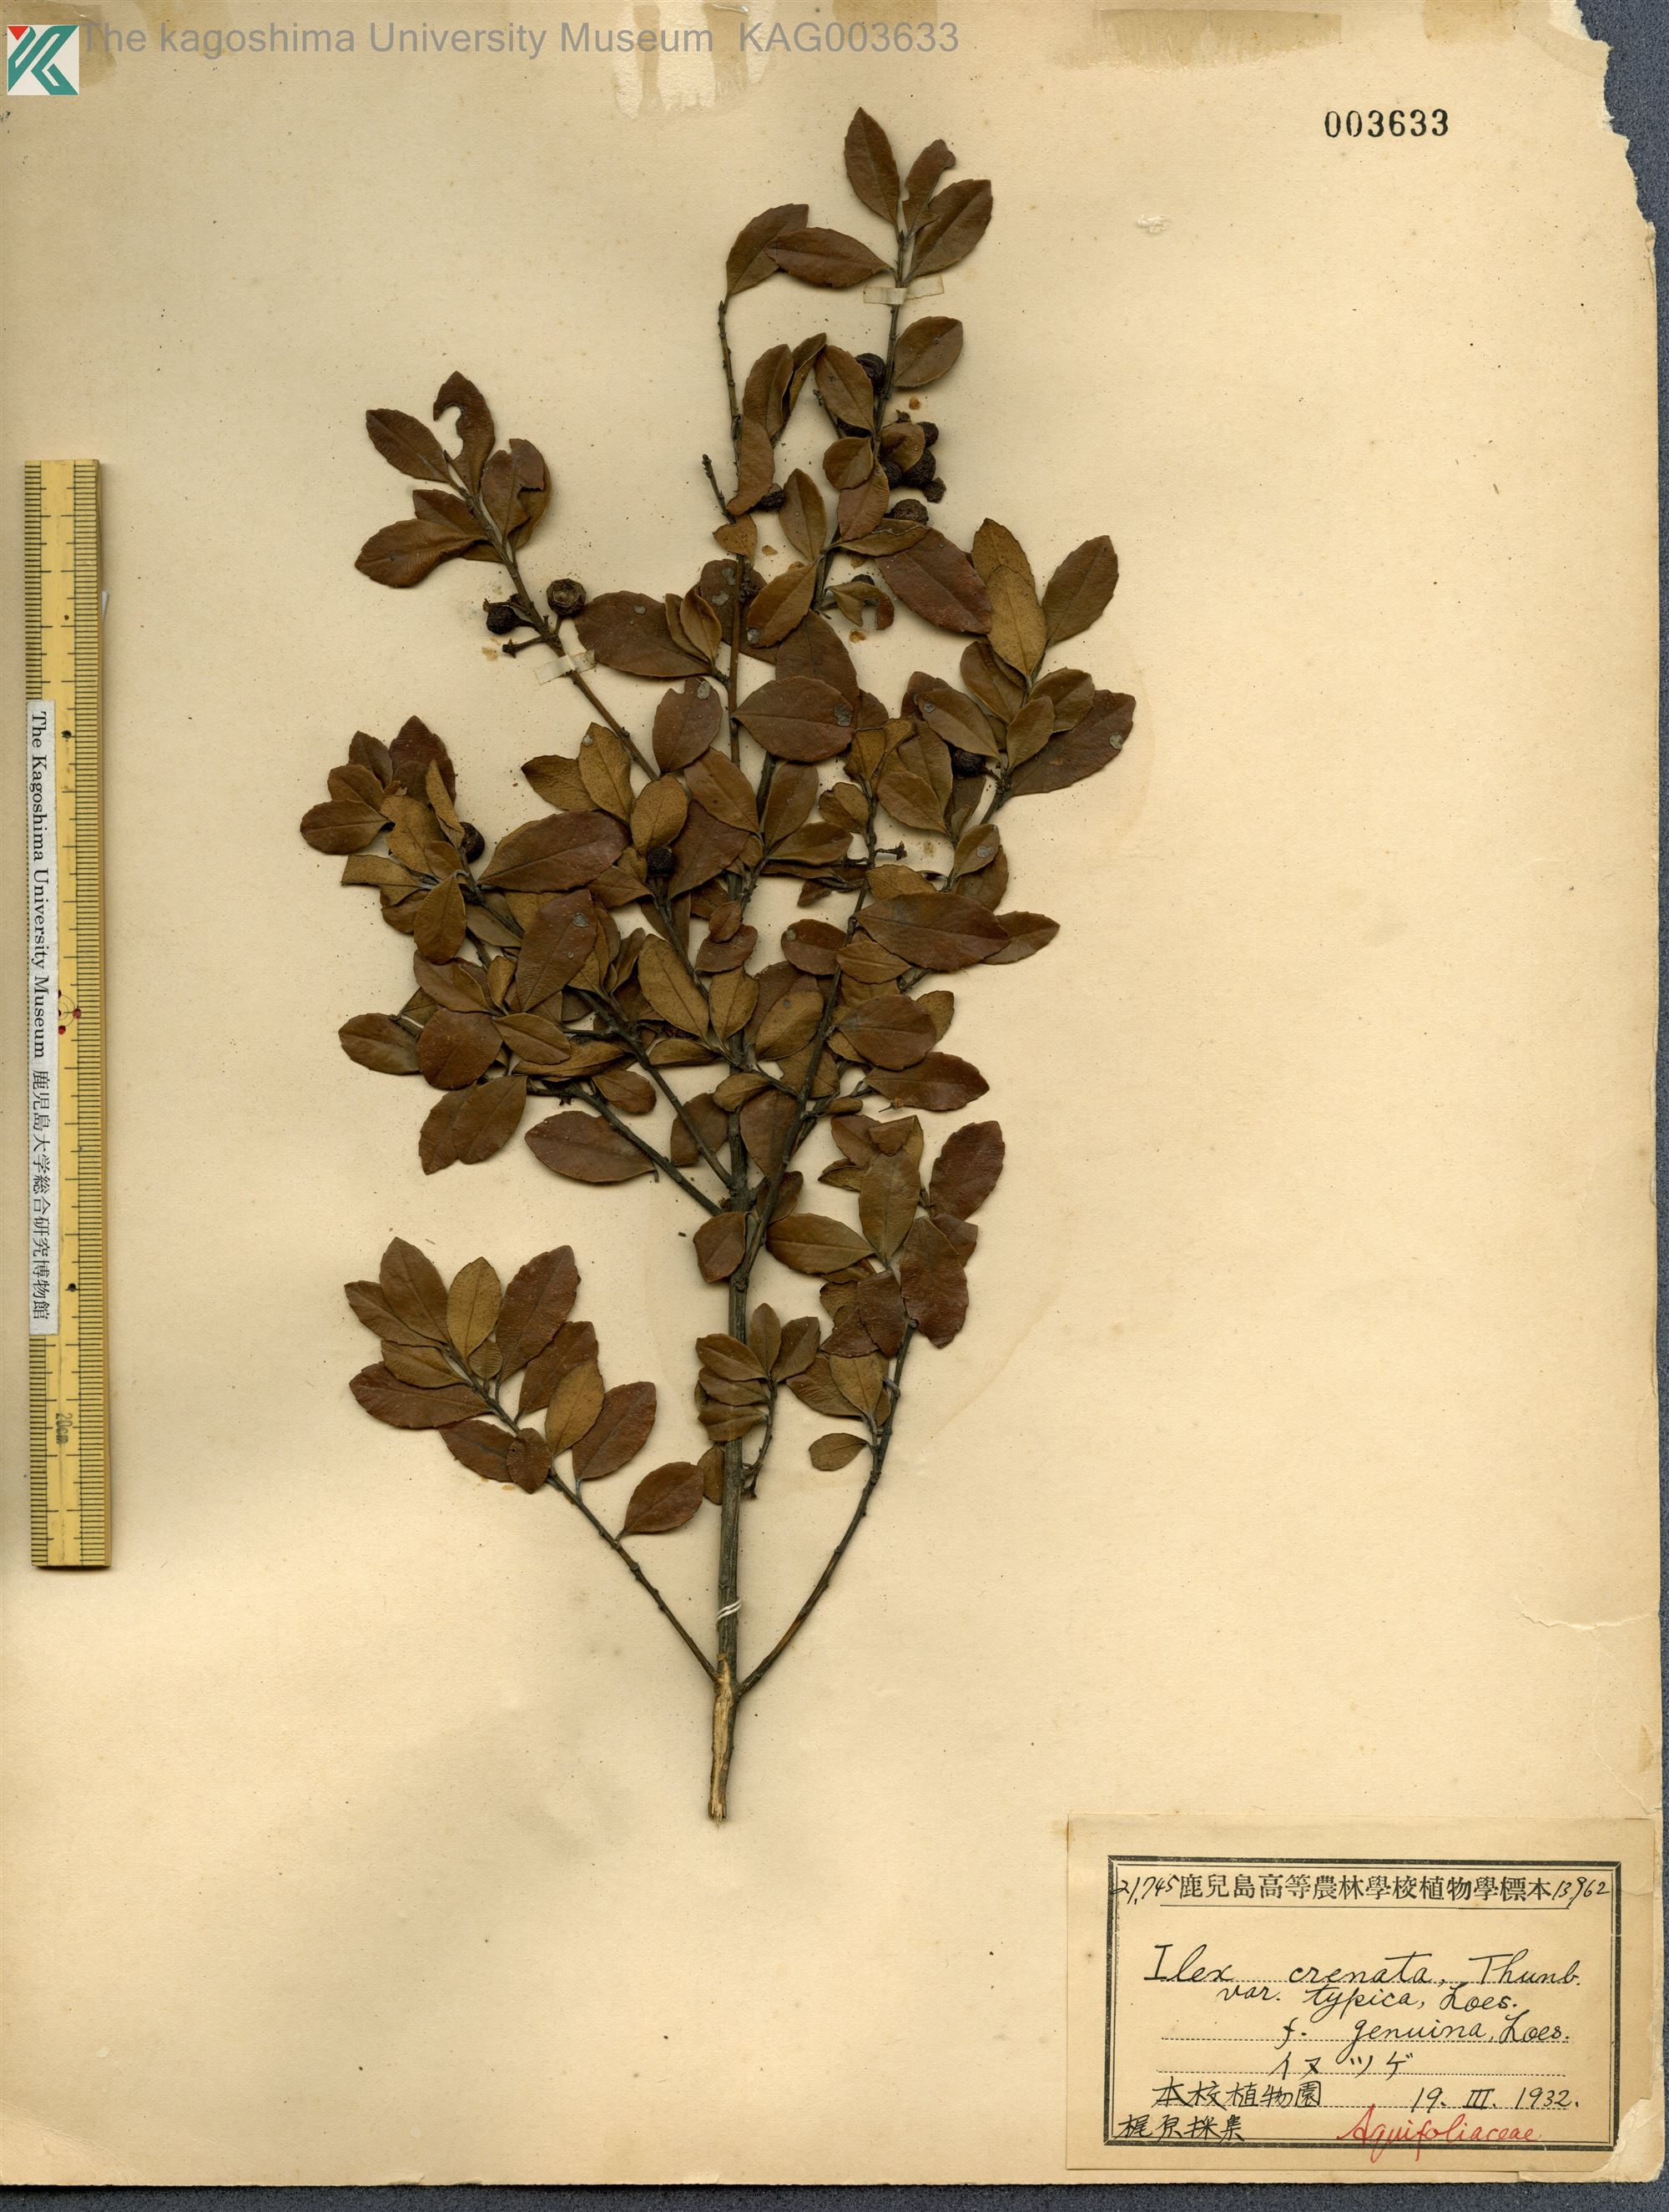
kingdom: Plantae
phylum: Tracheophyta
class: Magnoliopsida
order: Aquifoliales
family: Aquifoliaceae
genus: Ilex
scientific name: Ilex crenata
